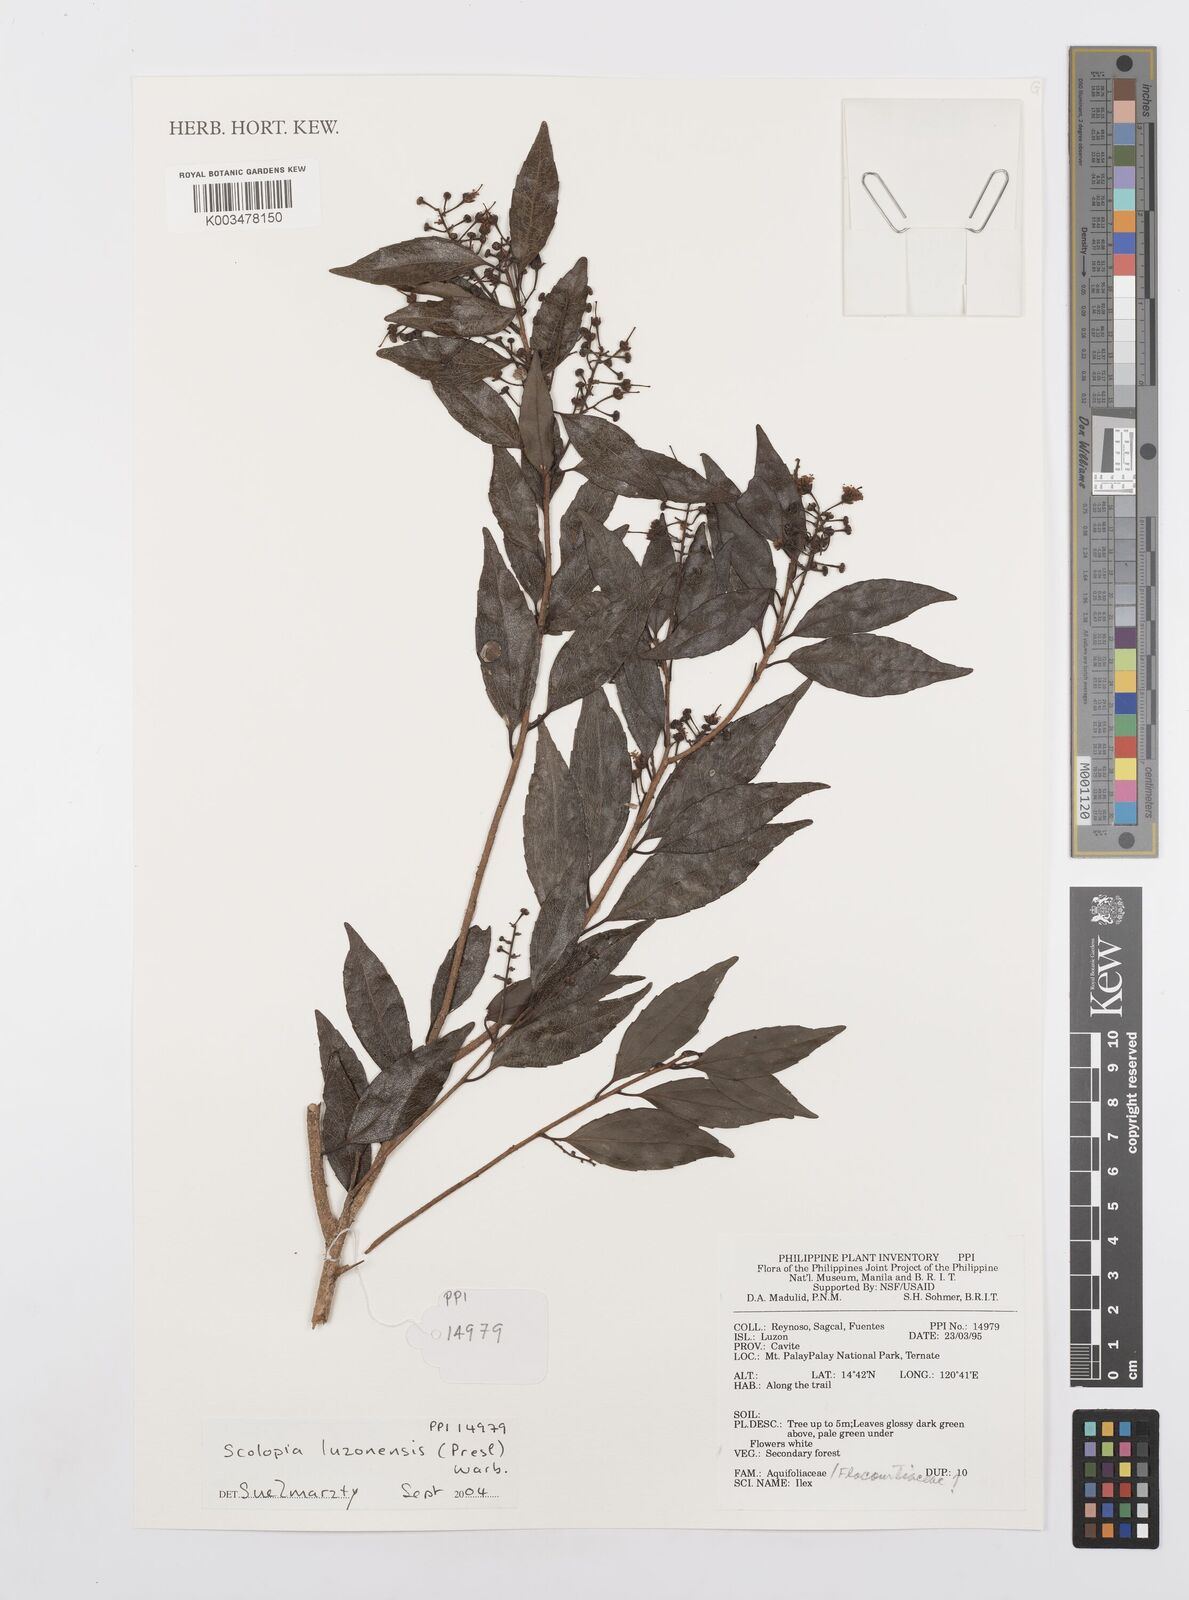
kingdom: Plantae
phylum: Tracheophyta
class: Magnoliopsida
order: Malpighiales
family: Salicaceae
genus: Scolopia
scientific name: Scolopia luzonensis
